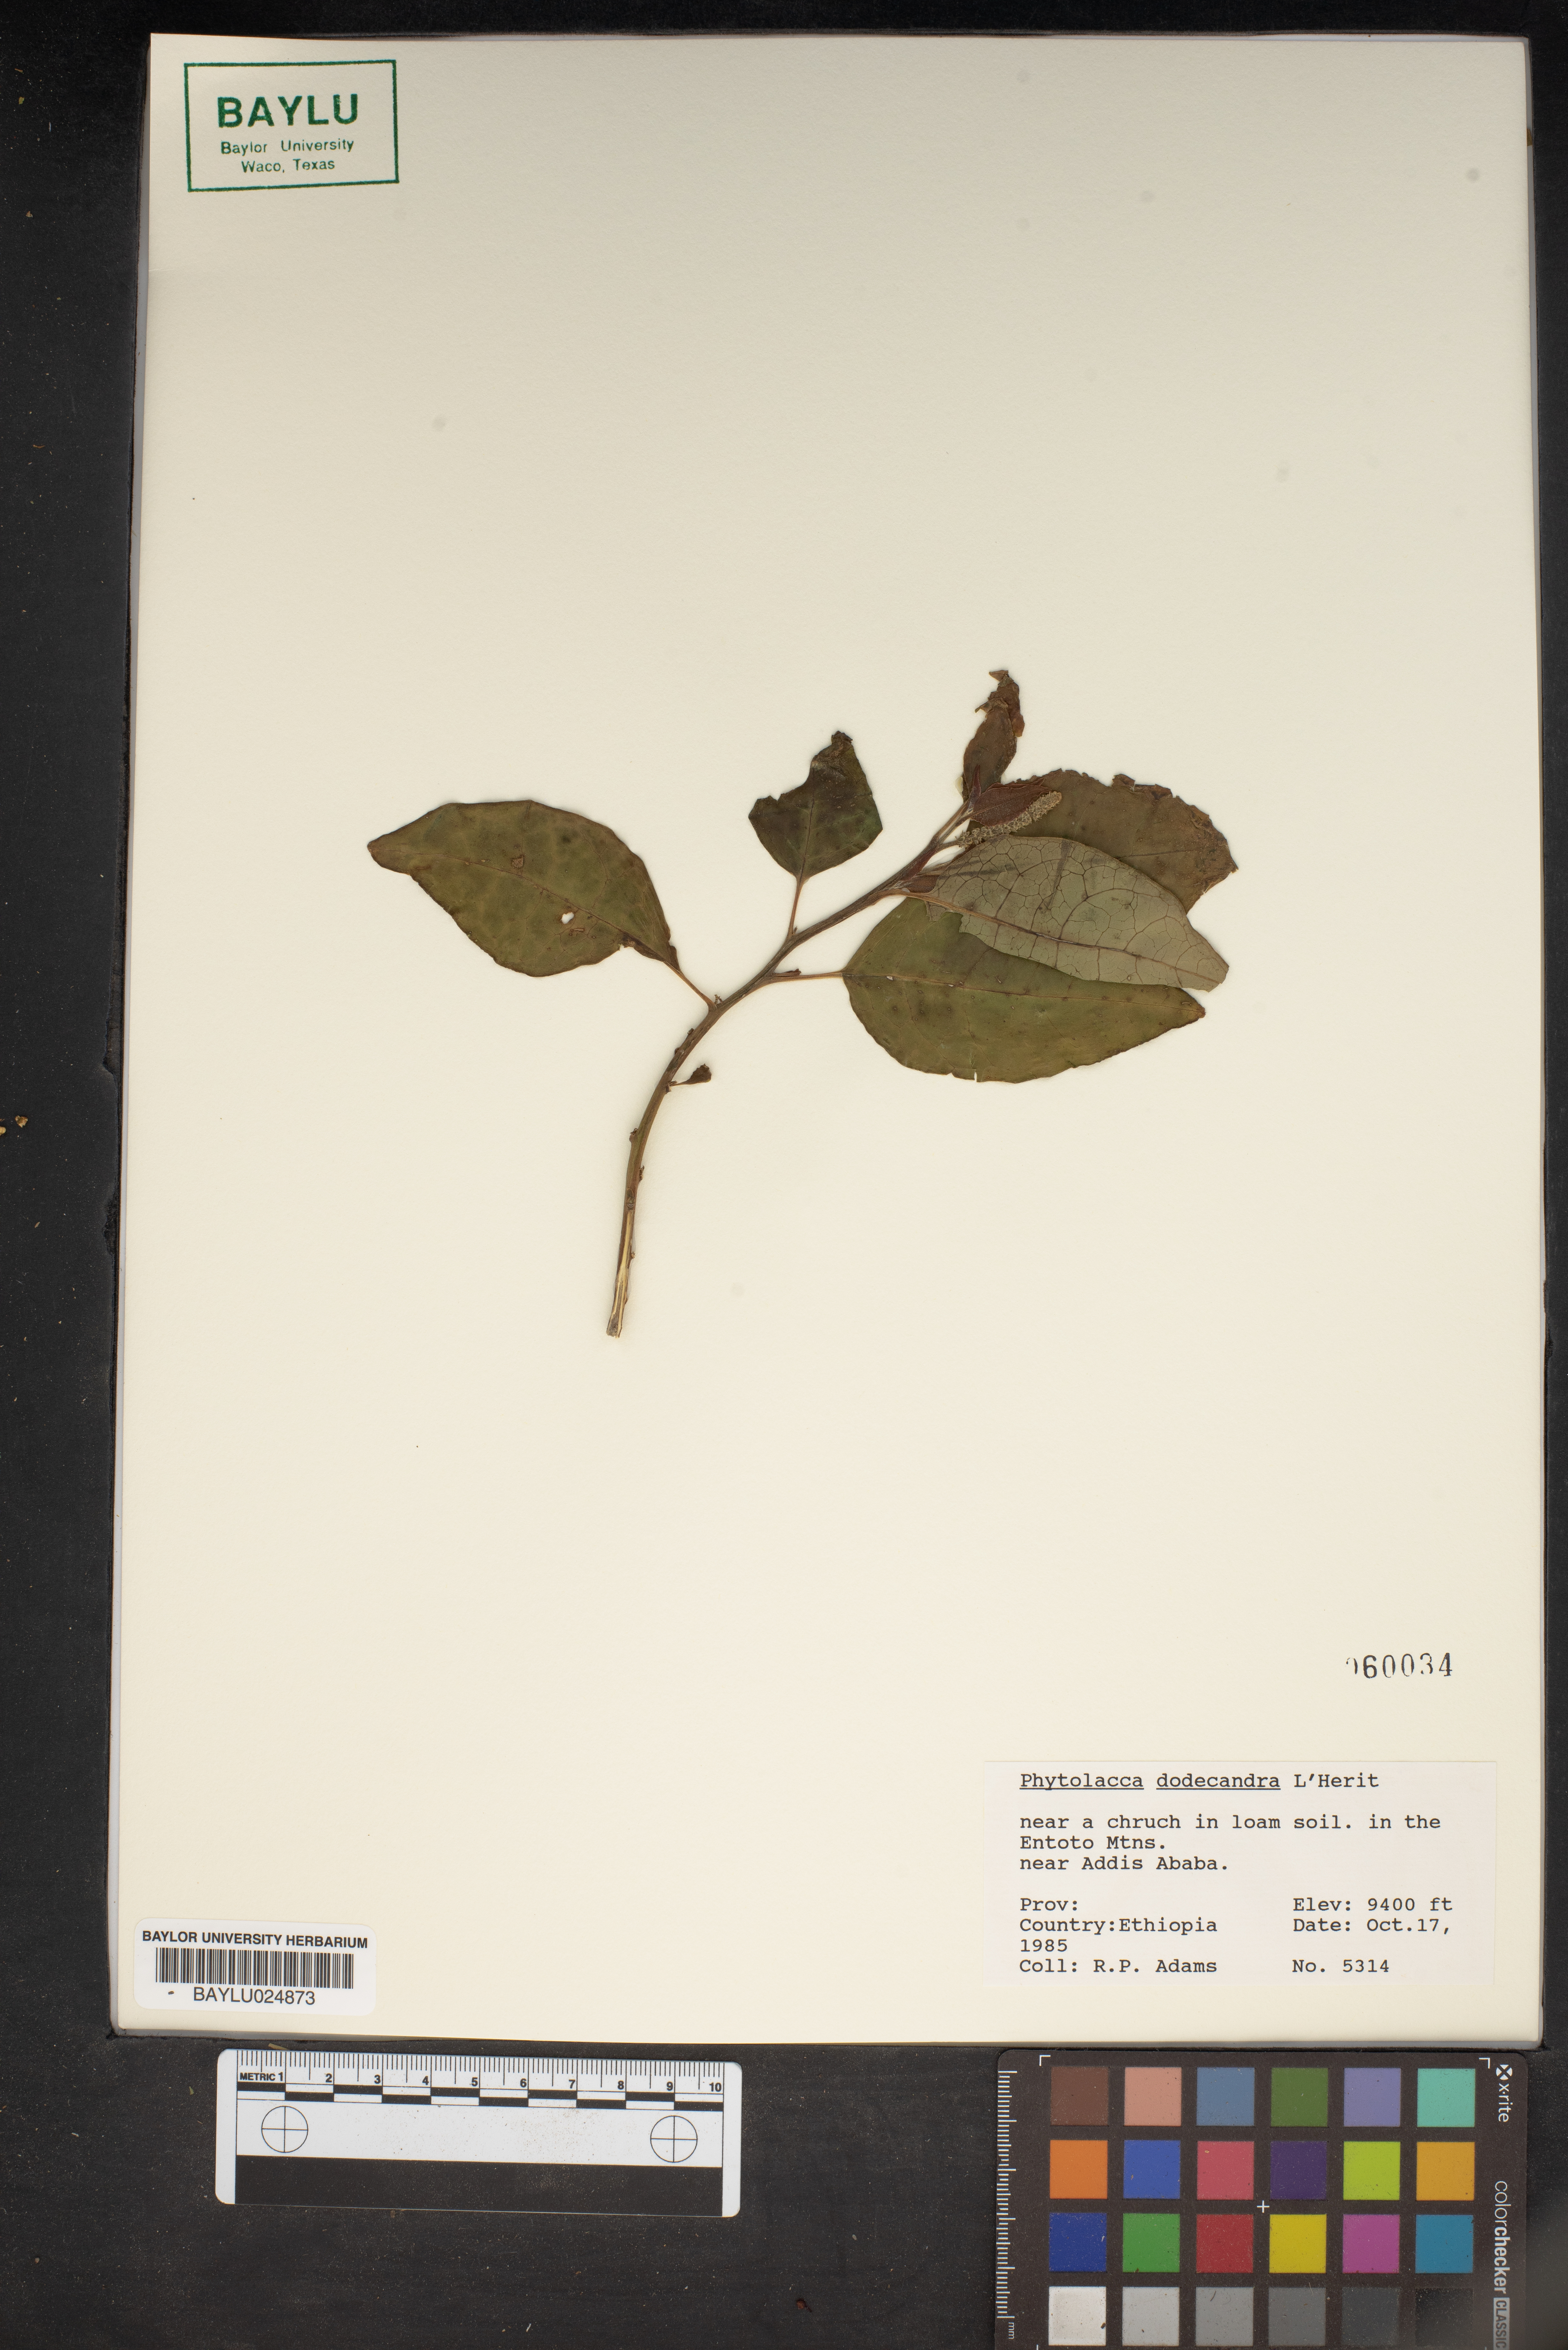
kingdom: Plantae
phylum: Tracheophyta
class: Magnoliopsida
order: Caryophyllales
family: Phytolaccaceae
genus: Phytolacca
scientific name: Phytolacca dodecandra
